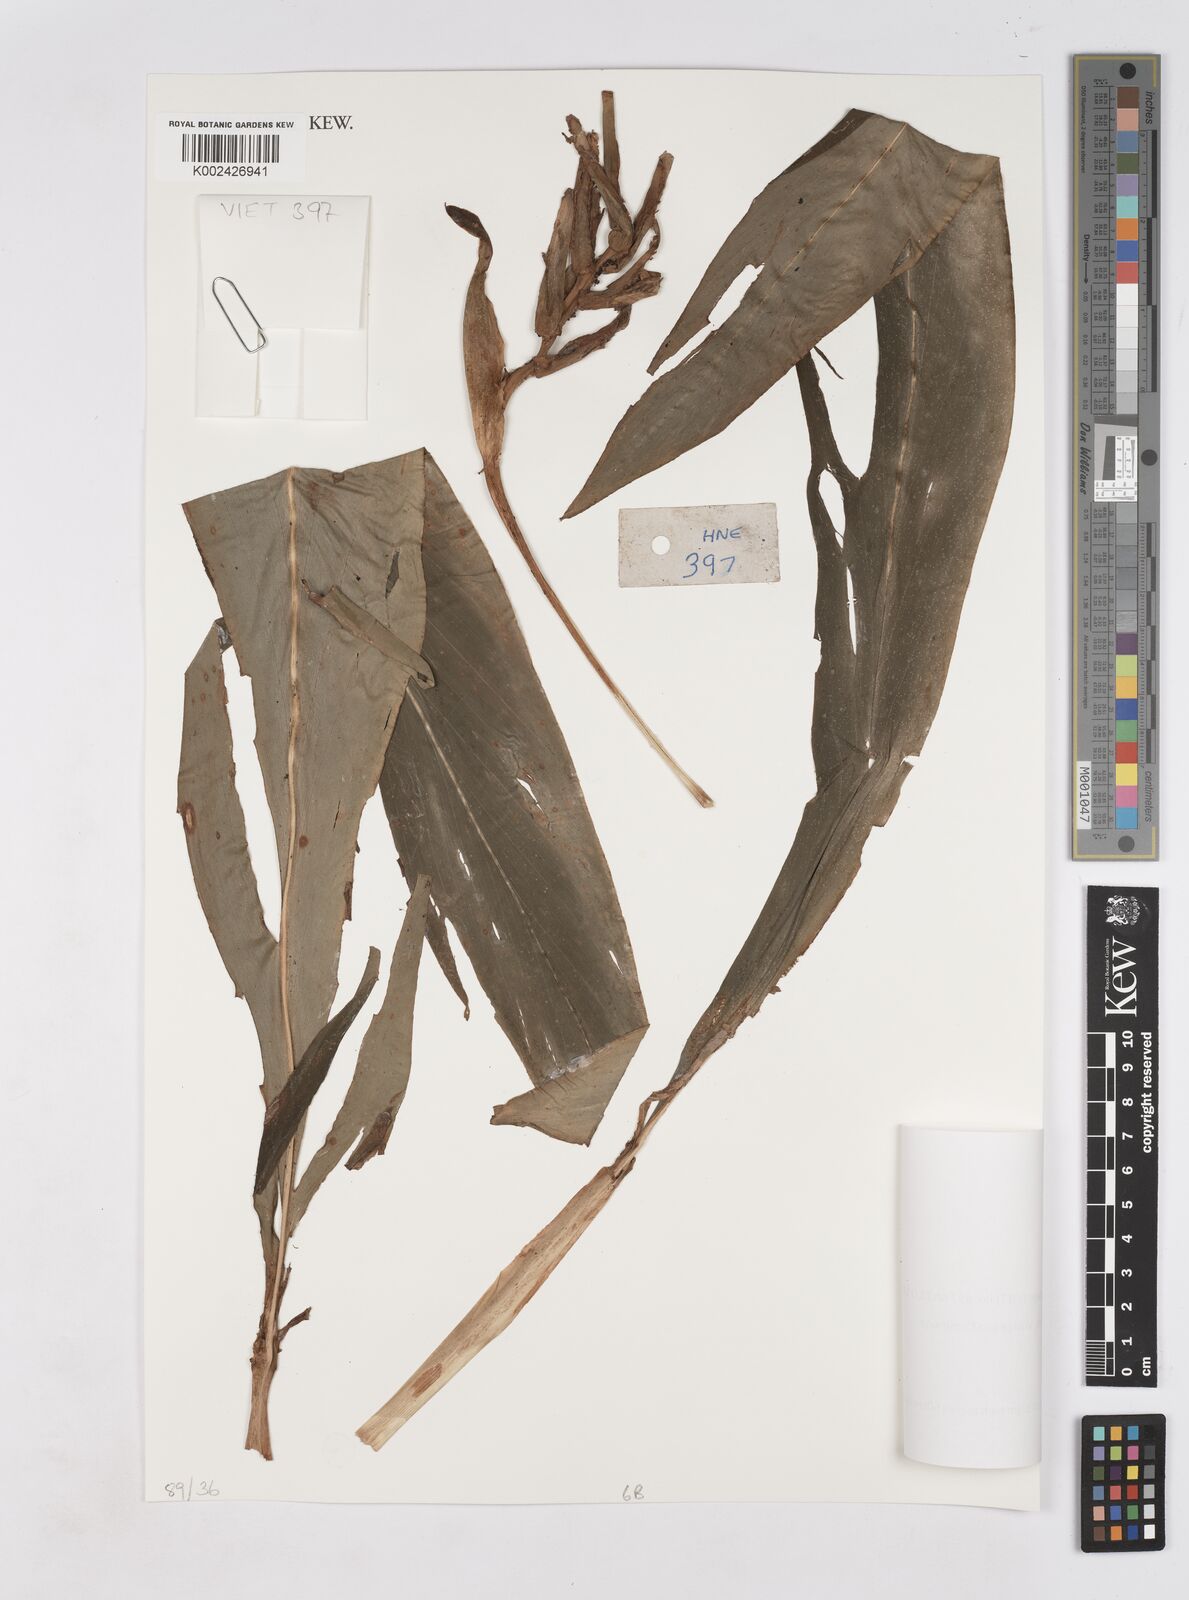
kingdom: Plantae
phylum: Tracheophyta
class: Liliopsida
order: Zingiberales
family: Zingiberaceae
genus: Hedychium
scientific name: Hedychium
